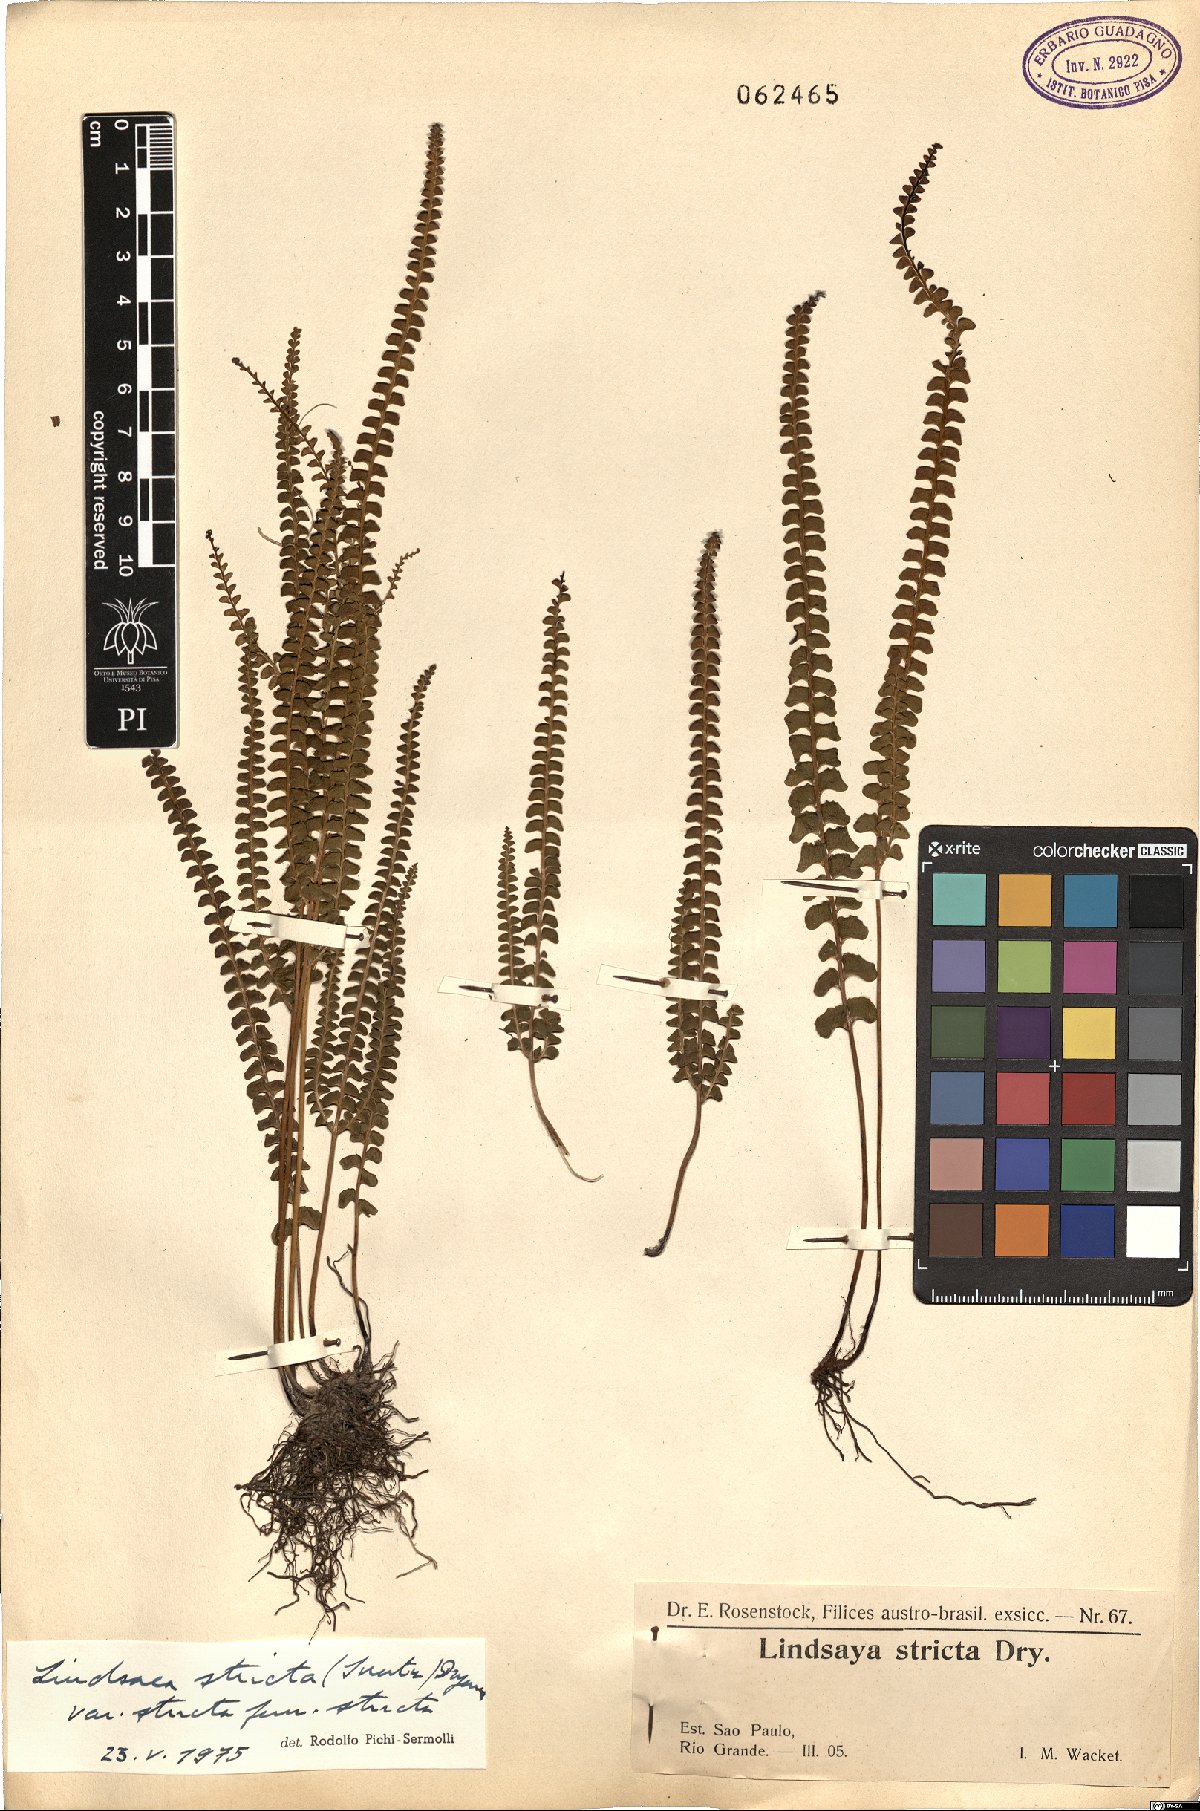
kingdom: Plantae
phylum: Tracheophyta
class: Polypodiopsida
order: Polypodiales
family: Lindsaeaceae
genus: Lindsaea
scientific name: Lindsaea stricta
